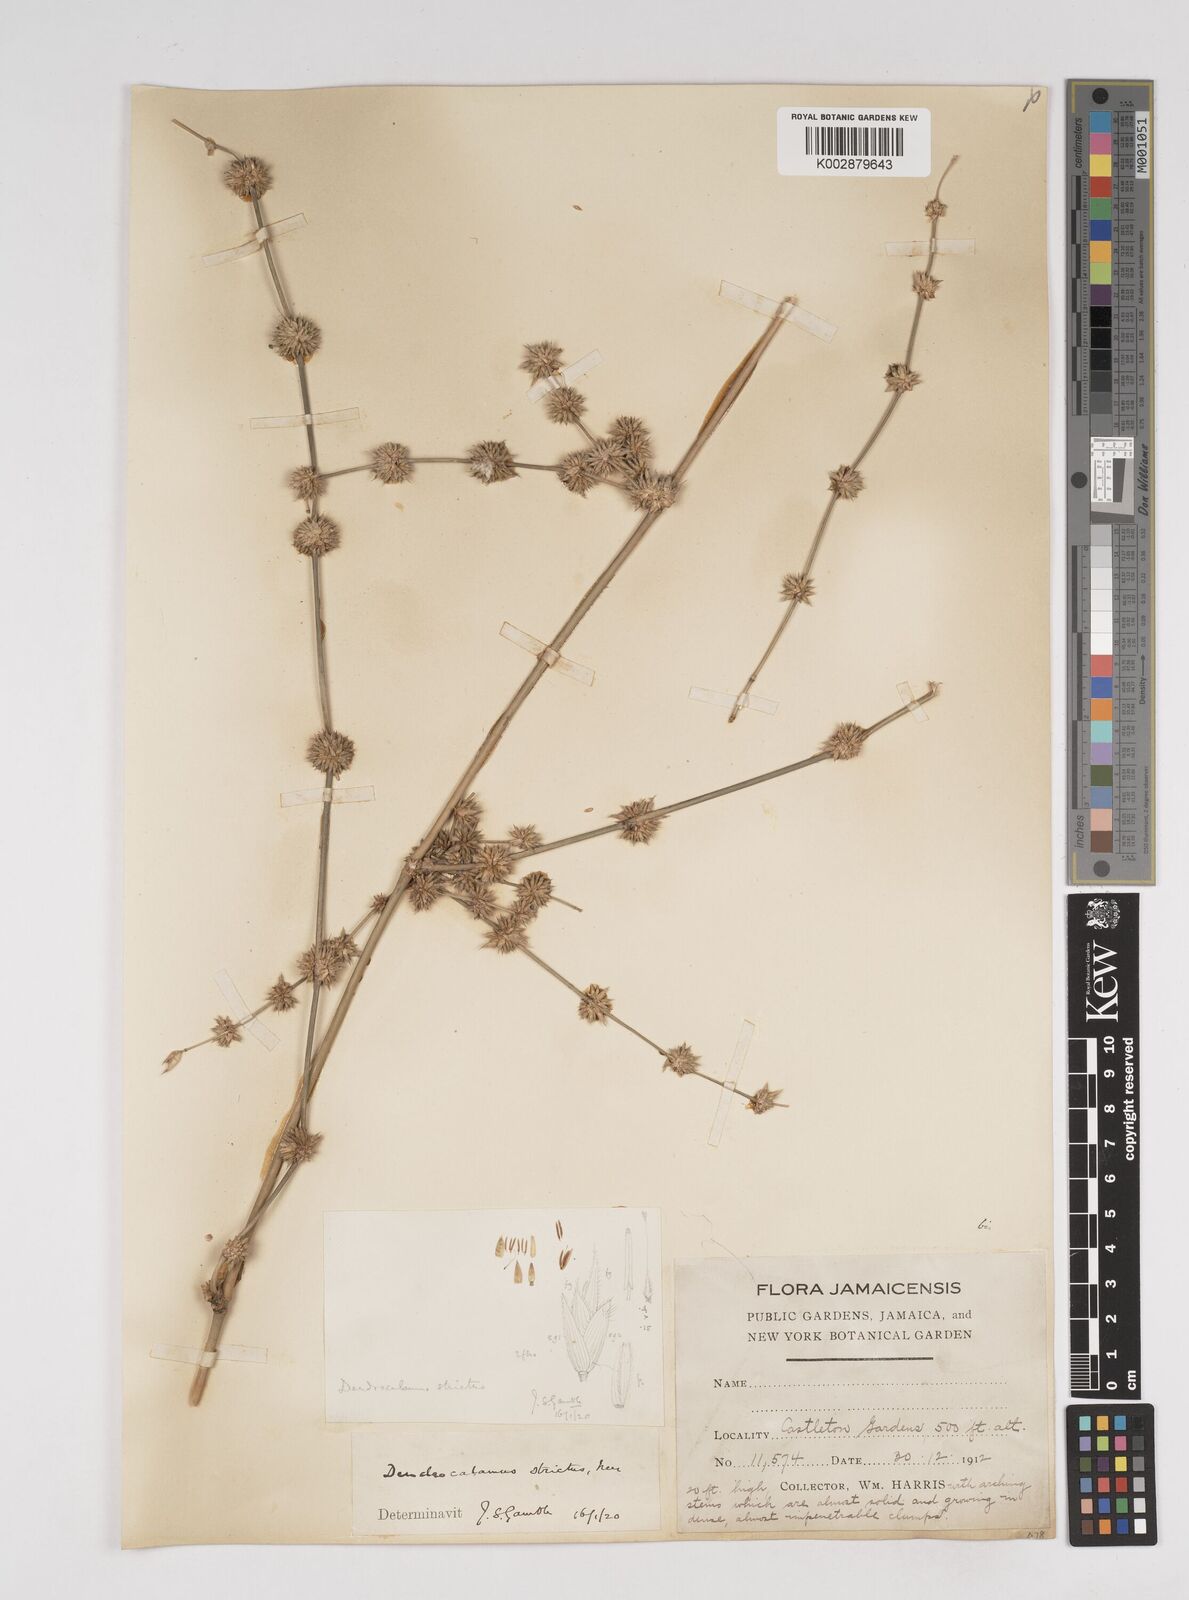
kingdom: Plantae
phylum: Tracheophyta
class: Liliopsida
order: Poales
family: Poaceae
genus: Dendrocalamus
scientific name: Dendrocalamus strictus
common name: Male bamboo
